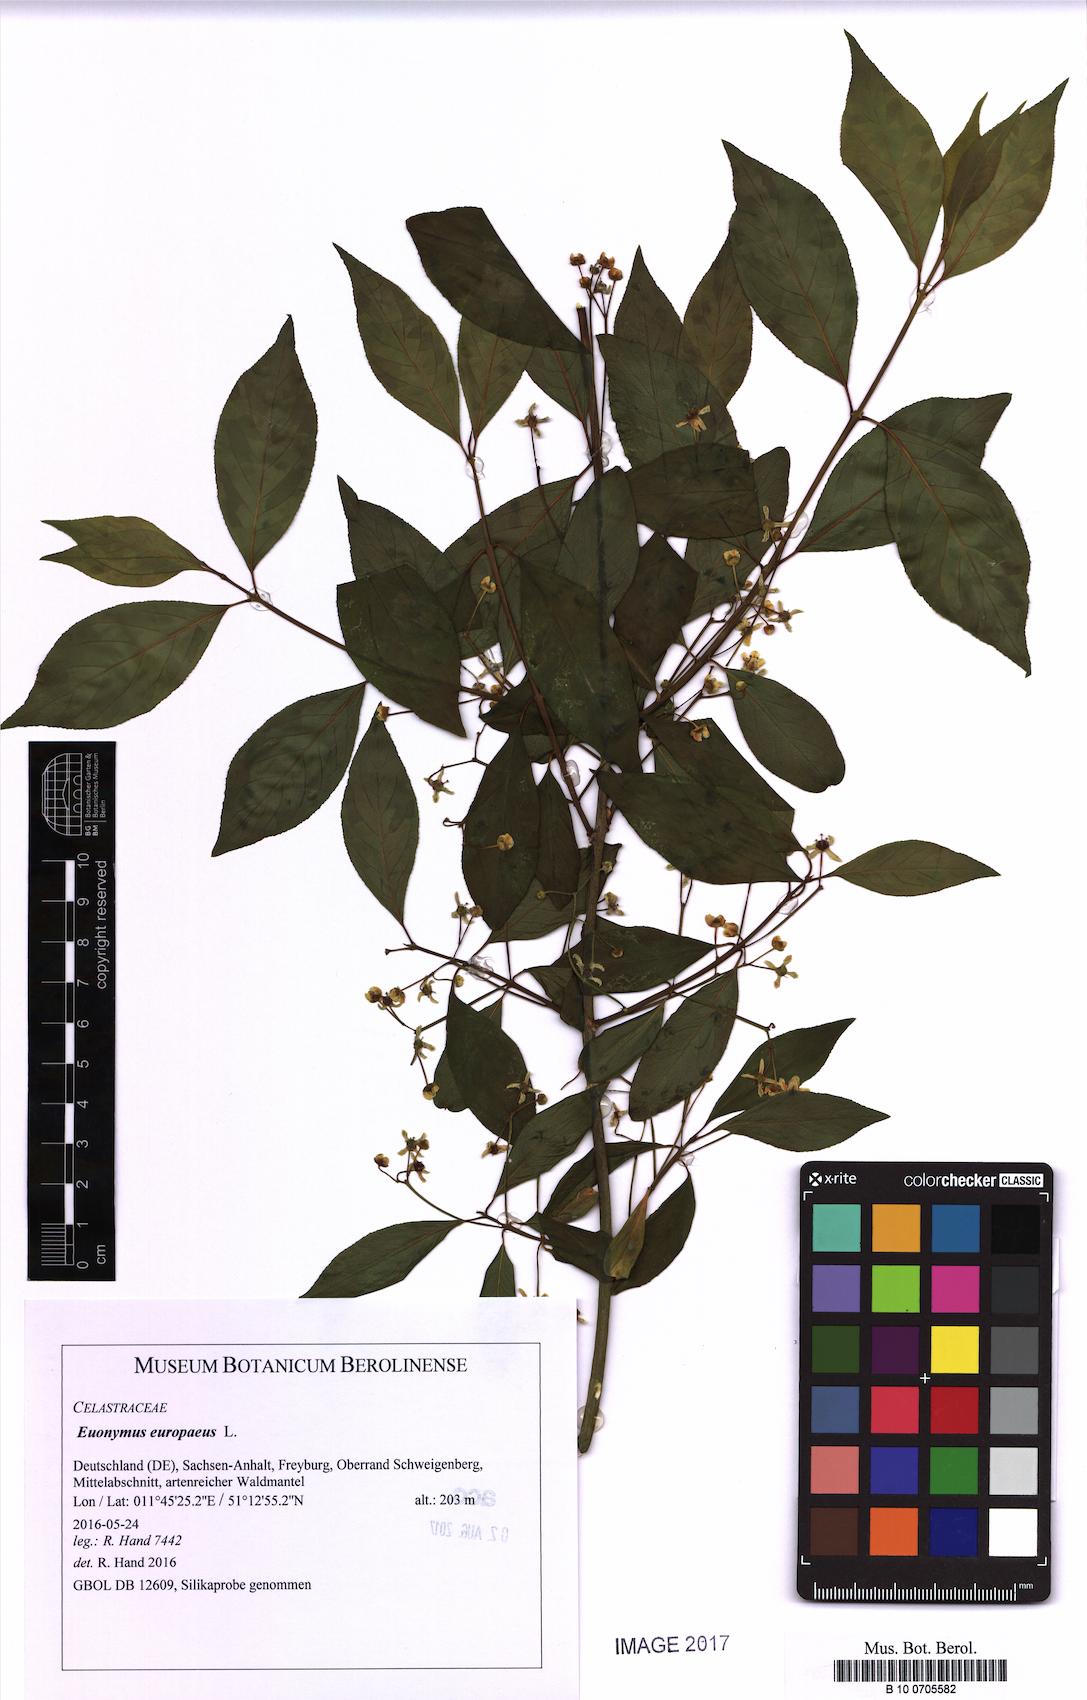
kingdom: Plantae
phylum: Tracheophyta
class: Magnoliopsida
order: Celastrales
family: Celastraceae
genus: Euonymus
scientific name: Euonymus europaeus
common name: Spindle
